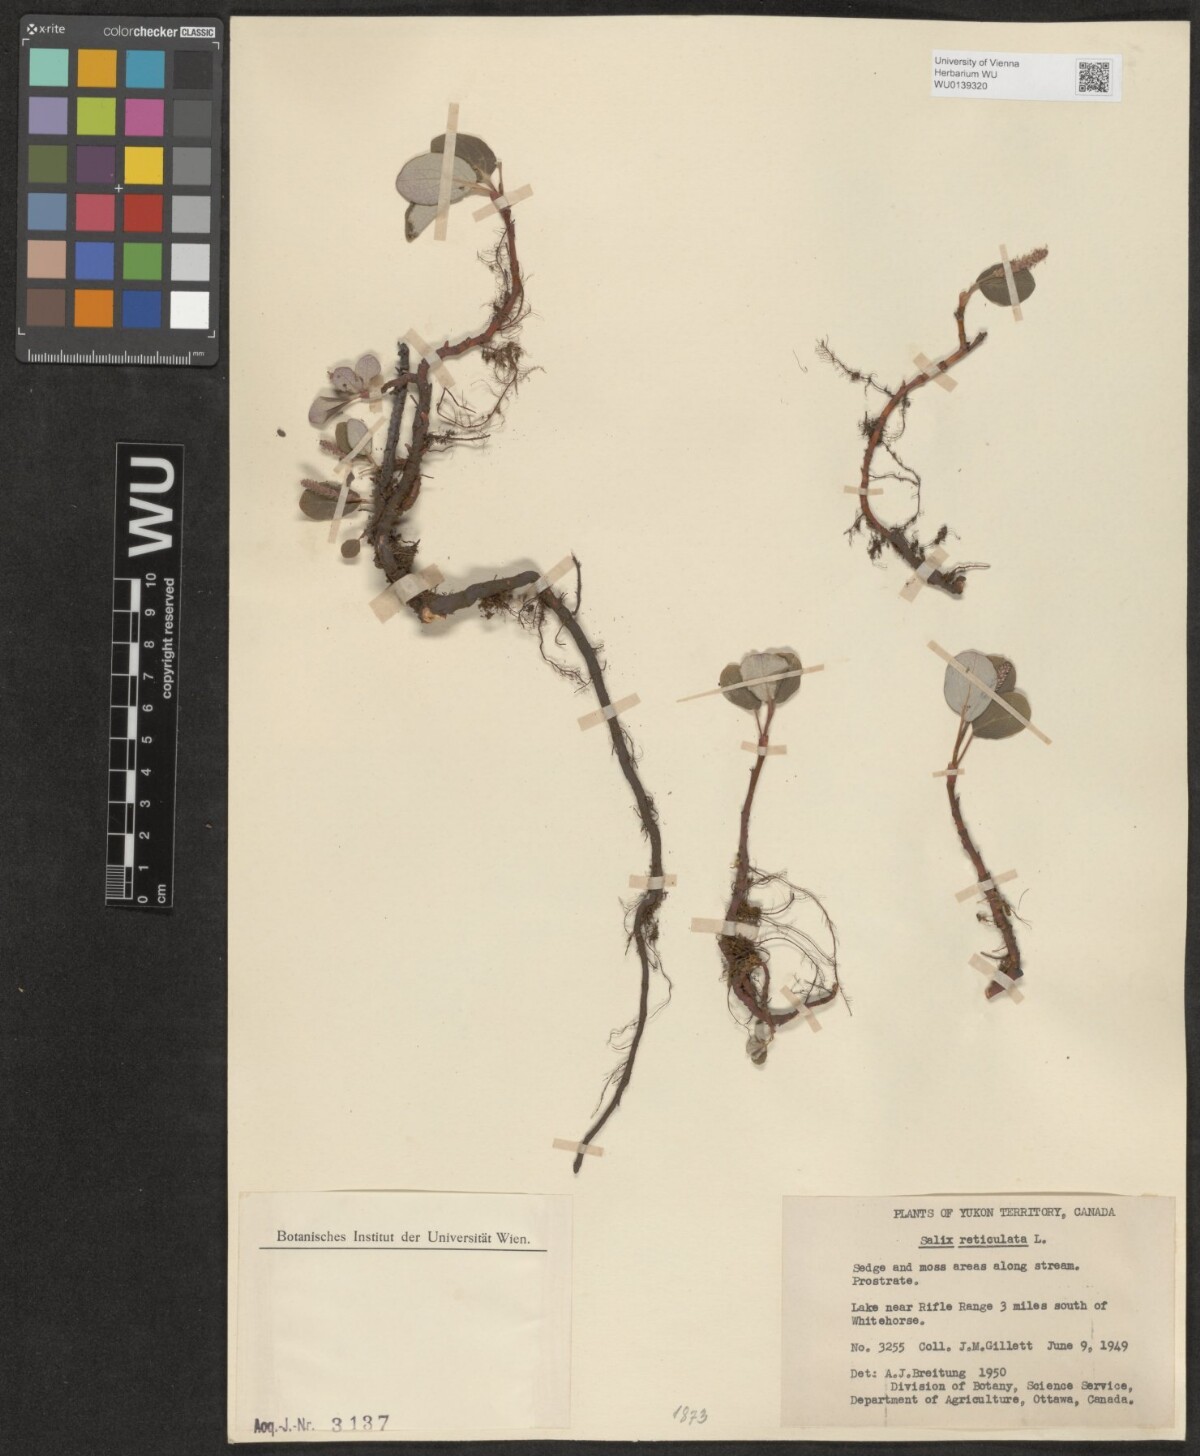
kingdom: Plantae
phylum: Tracheophyta
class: Magnoliopsida
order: Malpighiales
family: Salicaceae
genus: Salix
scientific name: Salix reticulata
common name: Net-leaved willow
